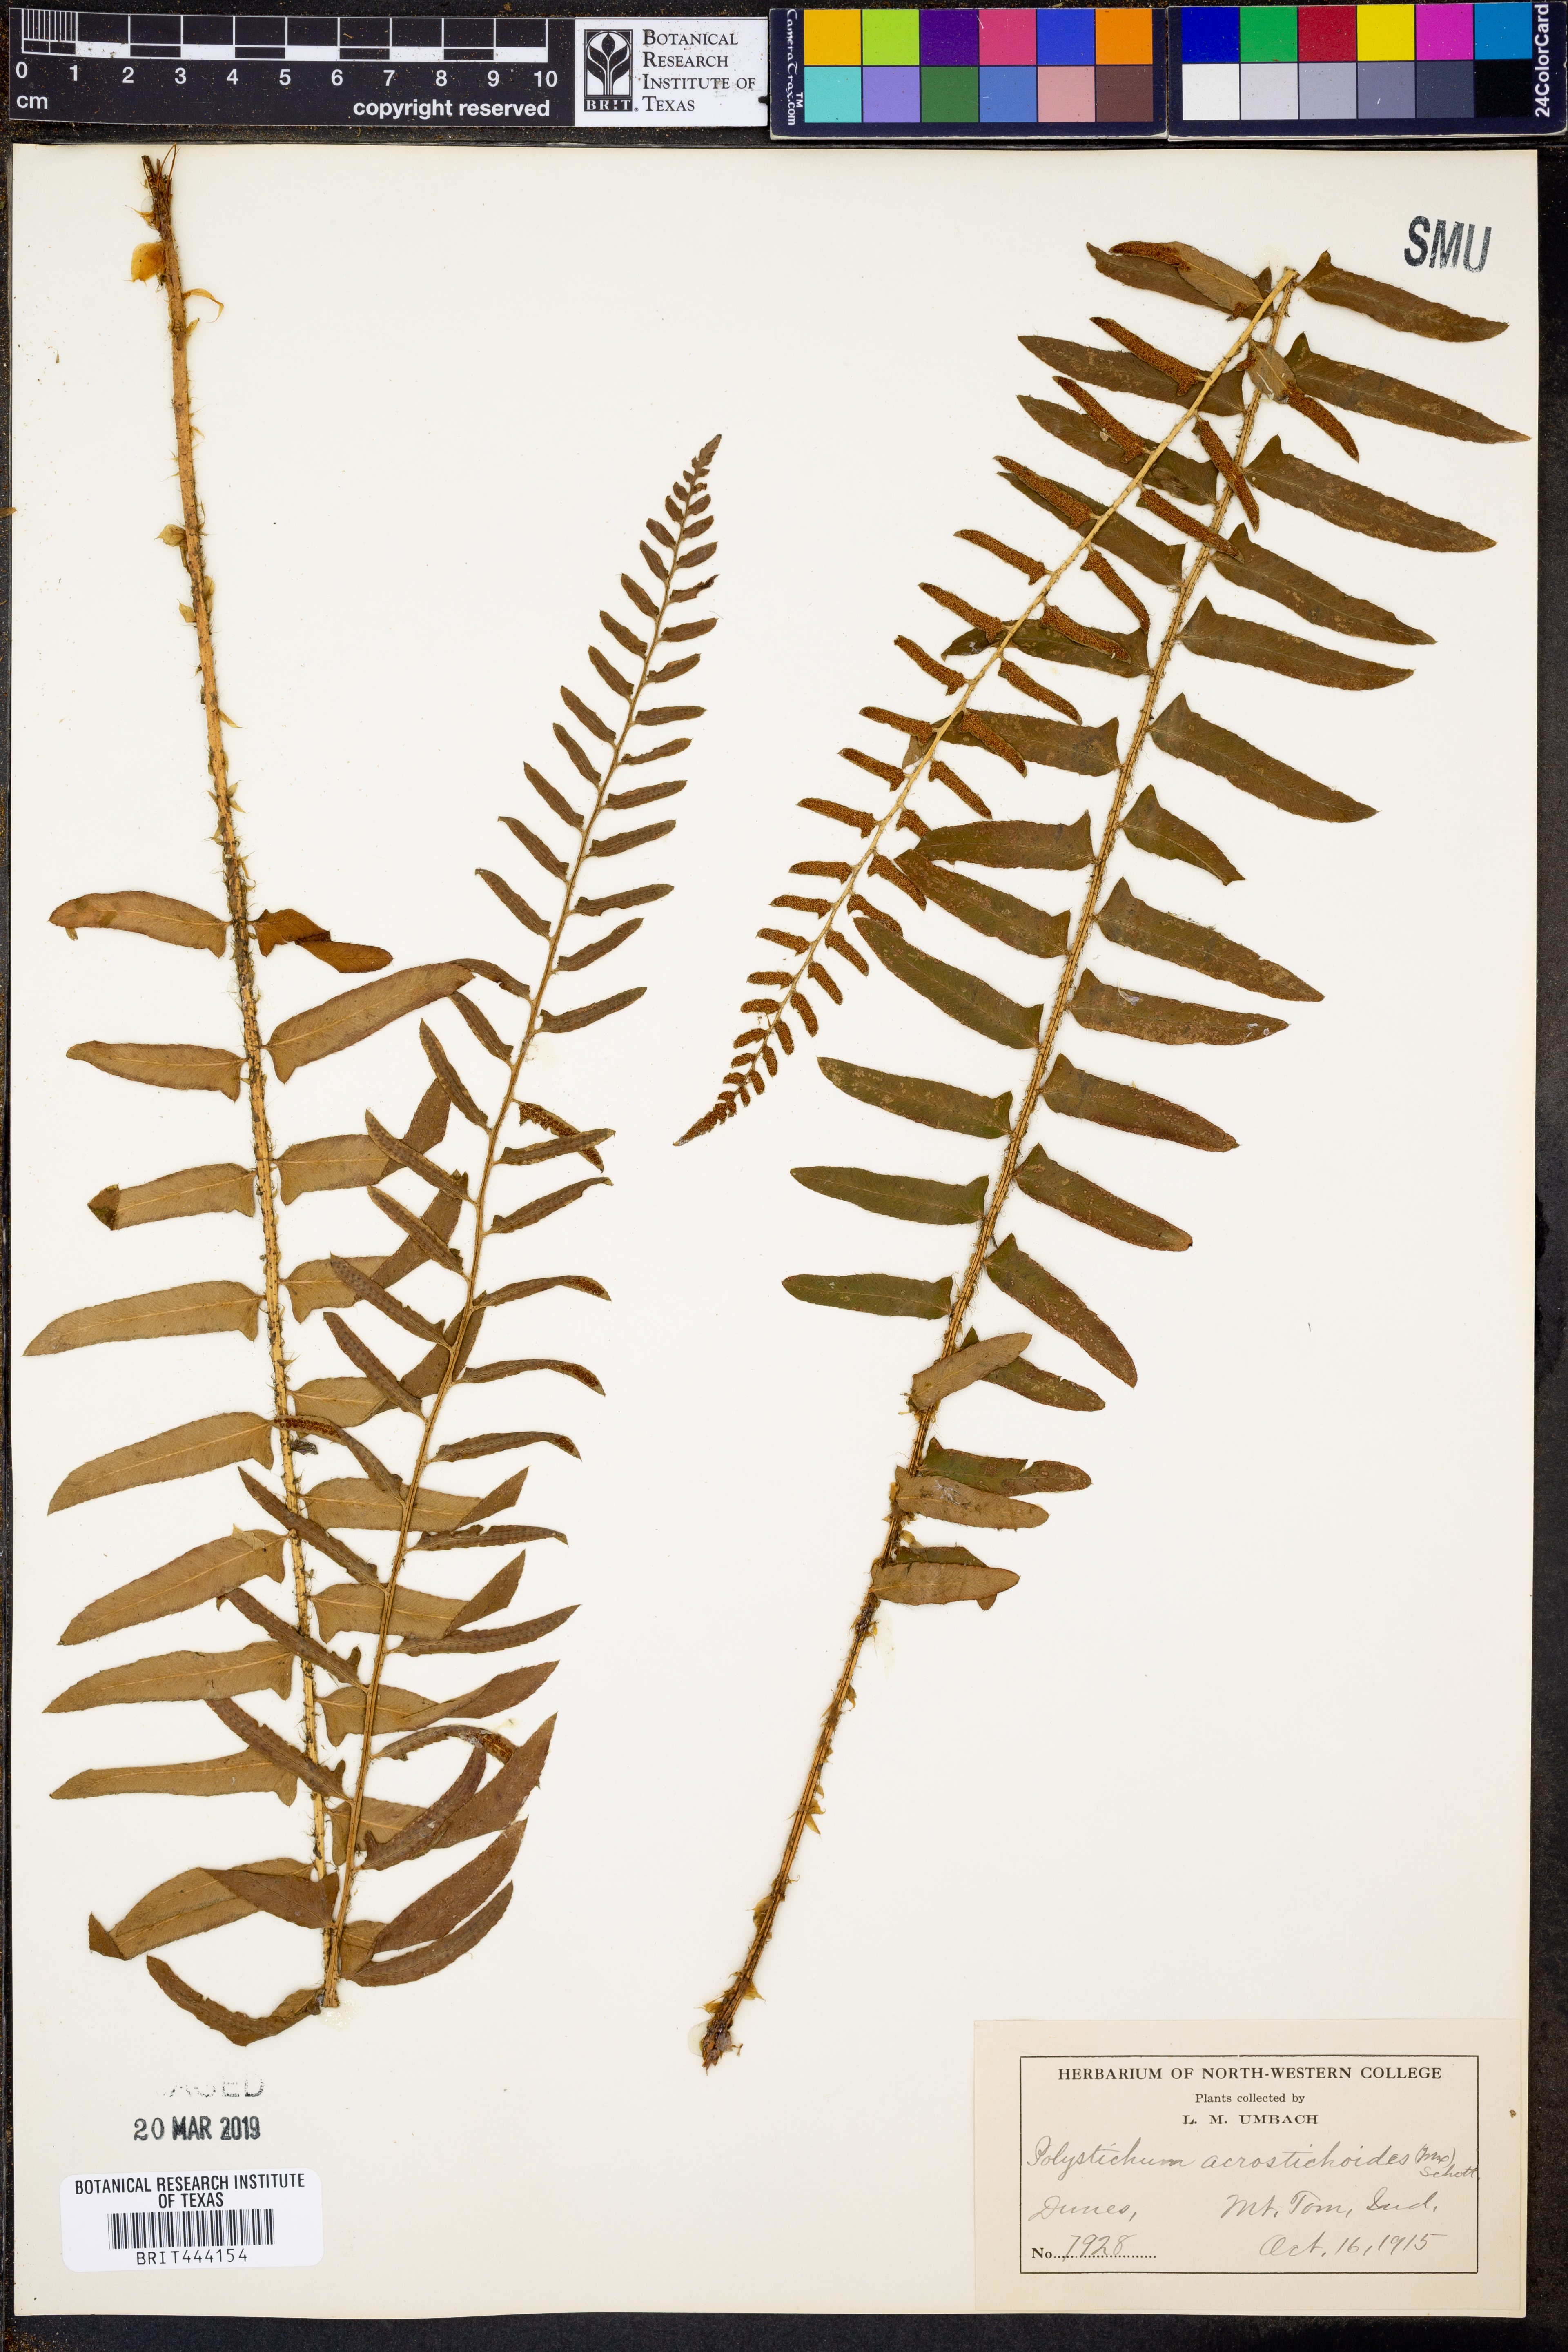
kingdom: Plantae
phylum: Tracheophyta
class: Polypodiopsida
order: Polypodiales
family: Dryopteridaceae
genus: Polystichum
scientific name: Polystichum acrostichoides
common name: Christmas fern
